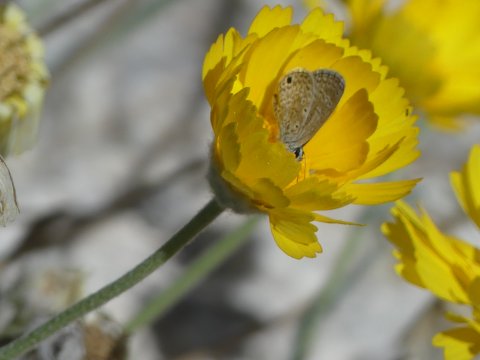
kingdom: Animalia
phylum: Arthropoda
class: Insecta
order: Lepidoptera
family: Lycaenidae
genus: Hemiargus
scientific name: Hemiargus ceraunus
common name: Ceraunus Blue
